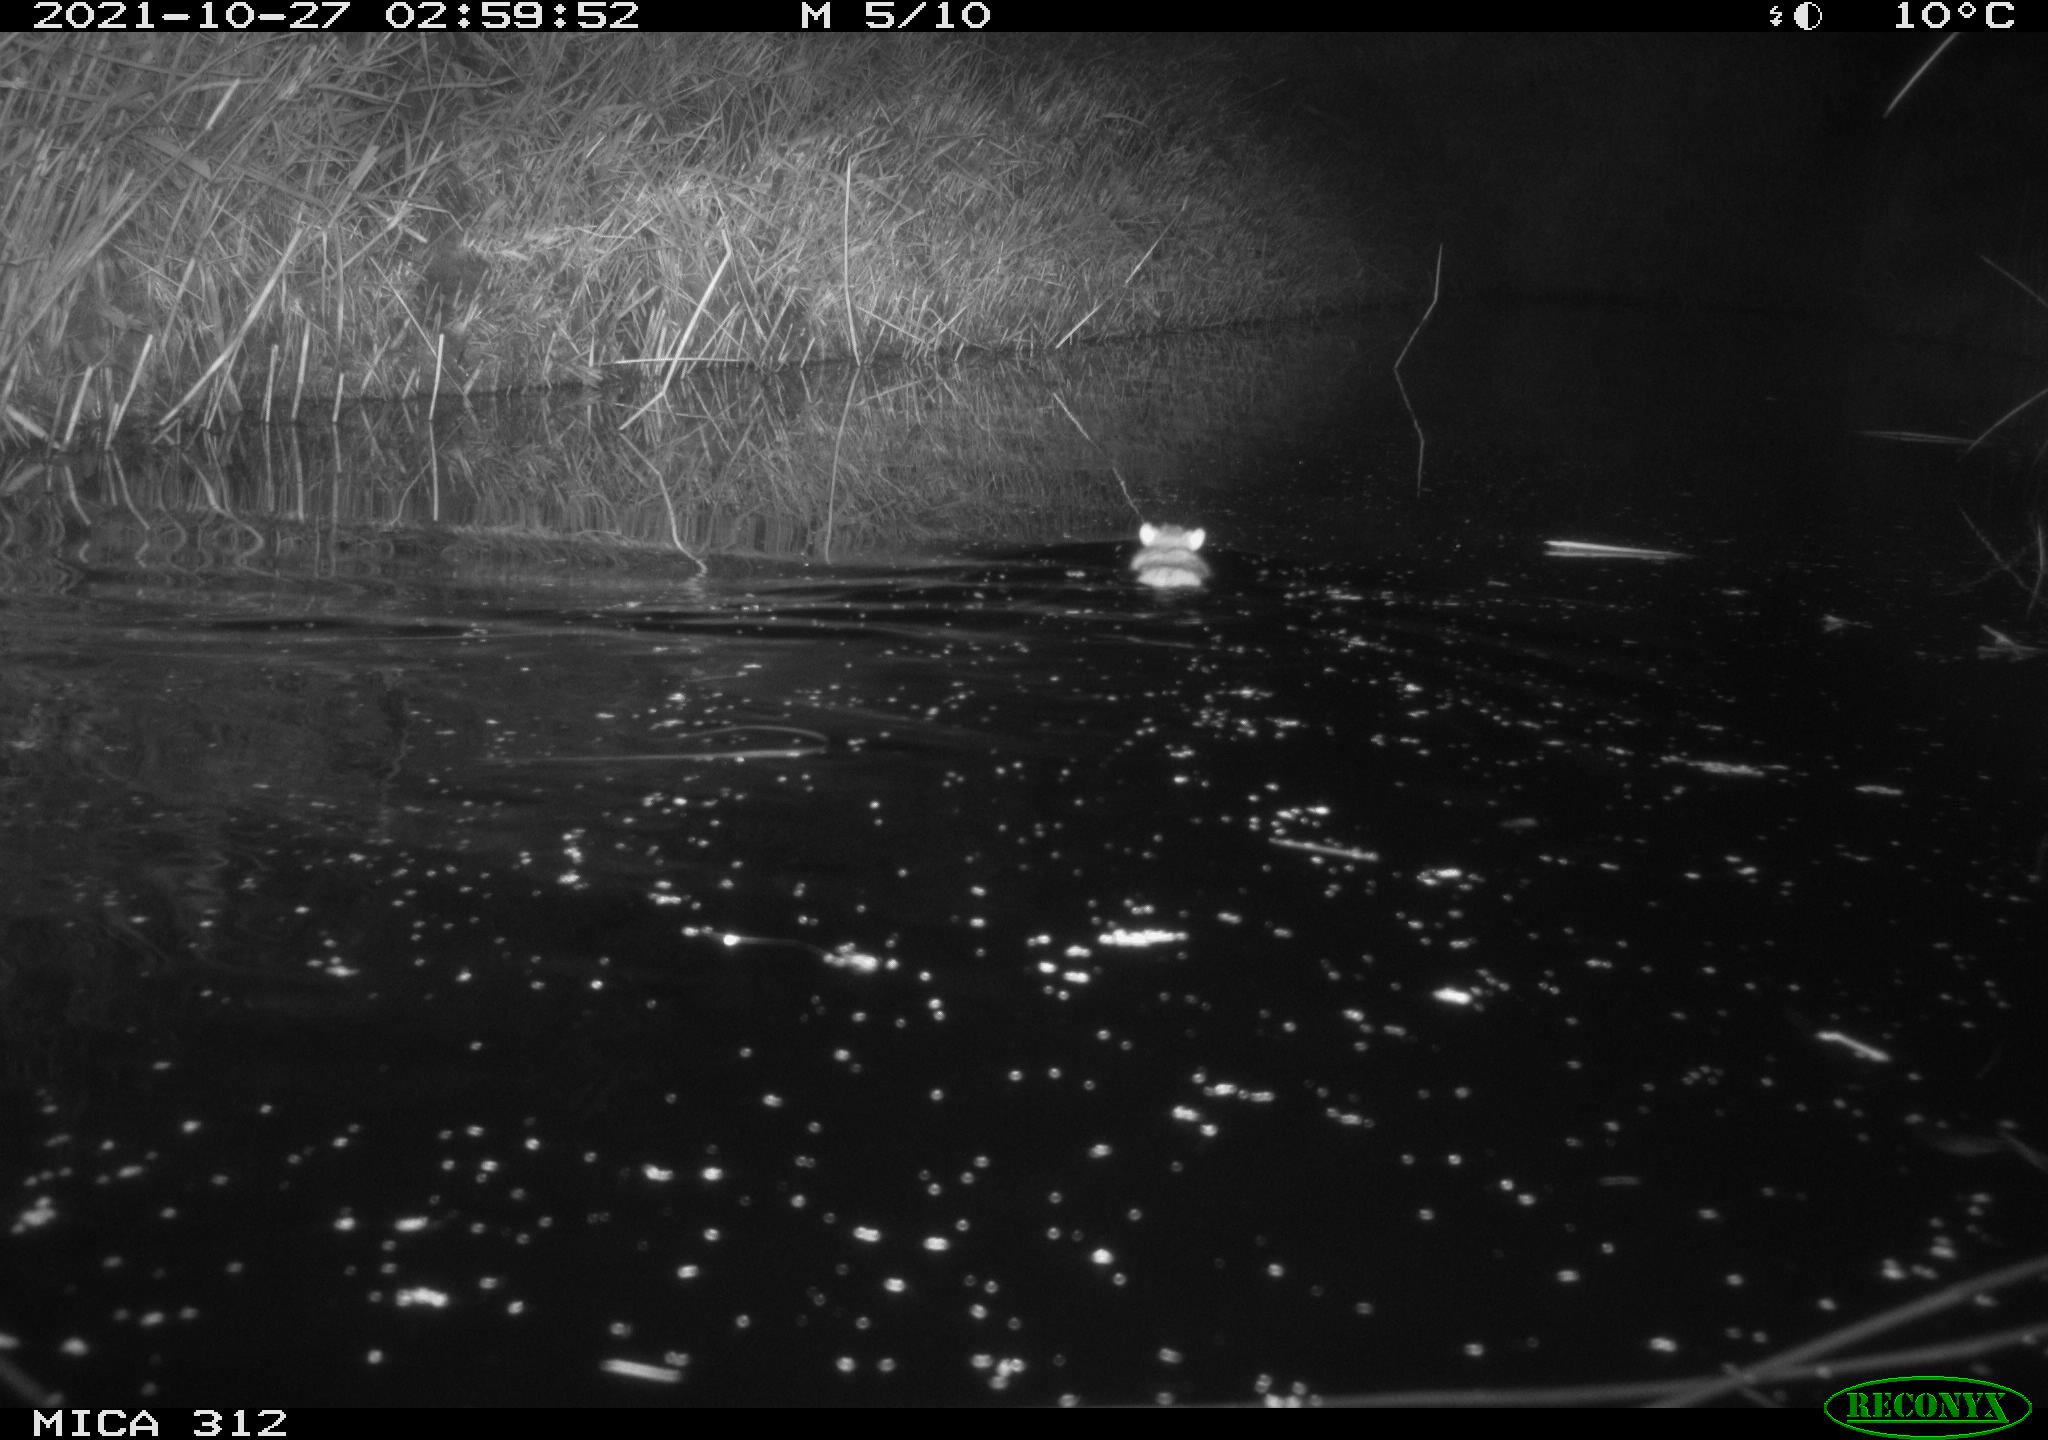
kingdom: Animalia
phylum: Chordata
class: Mammalia
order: Rodentia
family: Muridae
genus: Rattus
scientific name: Rattus norvegicus
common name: Brown rat
